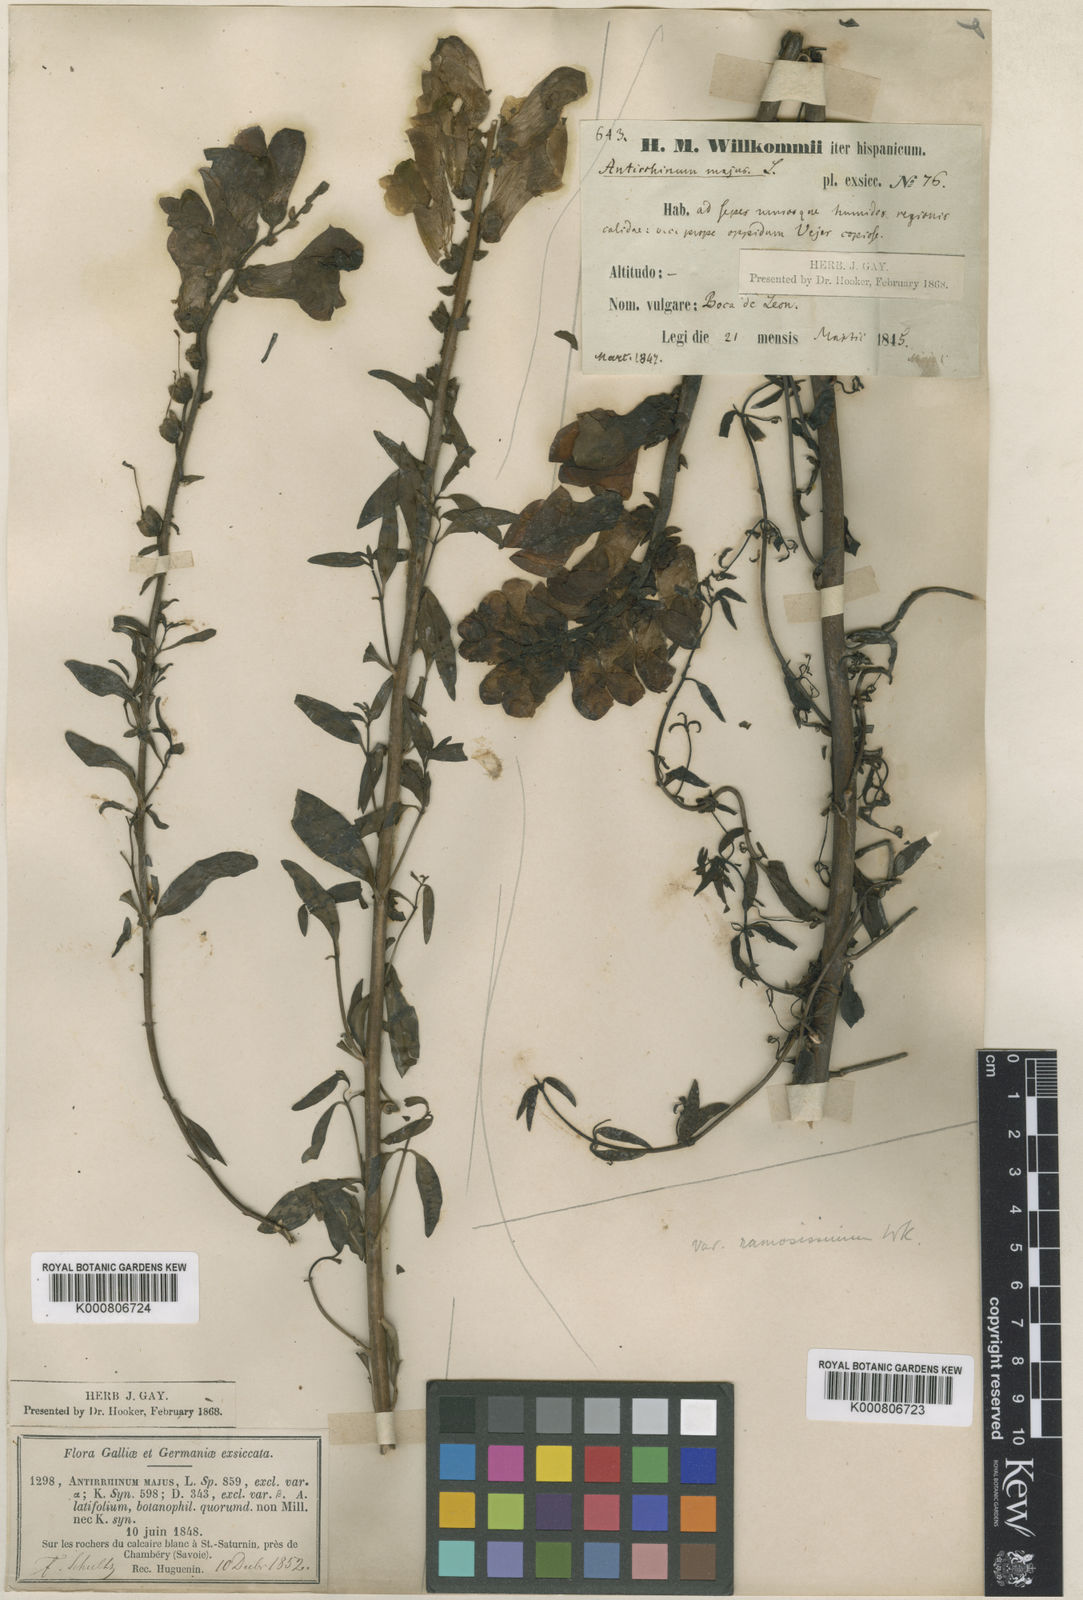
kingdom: Plantae
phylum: Tracheophyta
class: Magnoliopsida
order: Lamiales
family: Plantaginaceae
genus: Antirrhinum
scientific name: Antirrhinum majus
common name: Snapdragon
